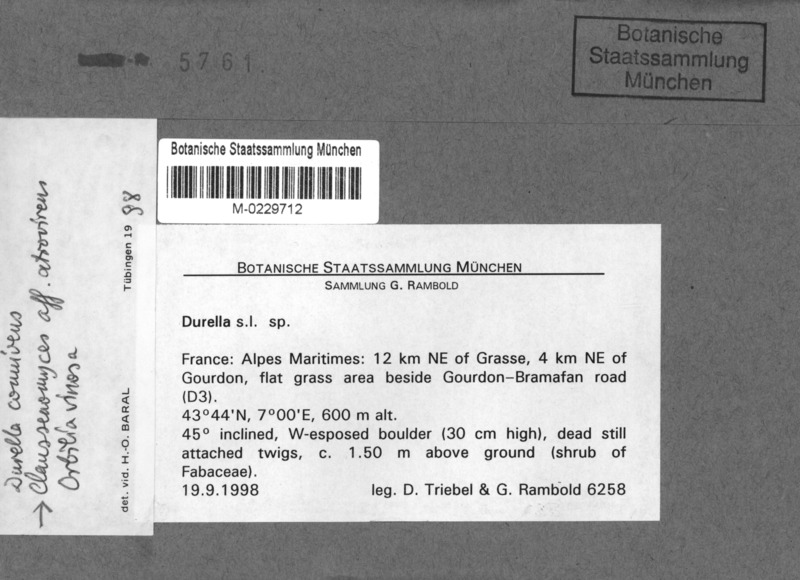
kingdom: Fungi
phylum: Ascomycota
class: Leotiomycetes
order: Helotiales
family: Helotiaceae
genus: Durella
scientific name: Durella connivens
